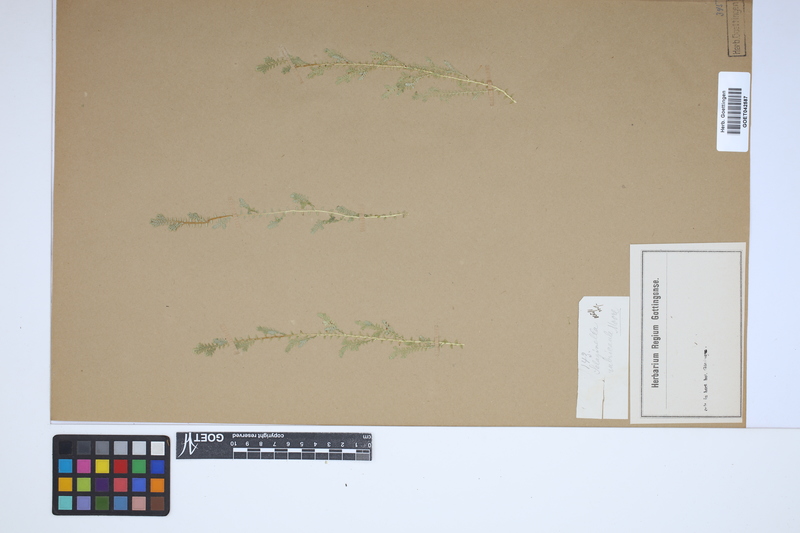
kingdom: Plantae
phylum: Tracheophyta
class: Lycopodiopsida
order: Selaginellales
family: Selaginellaceae
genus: Selaginella
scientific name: Selaginella molliceps
